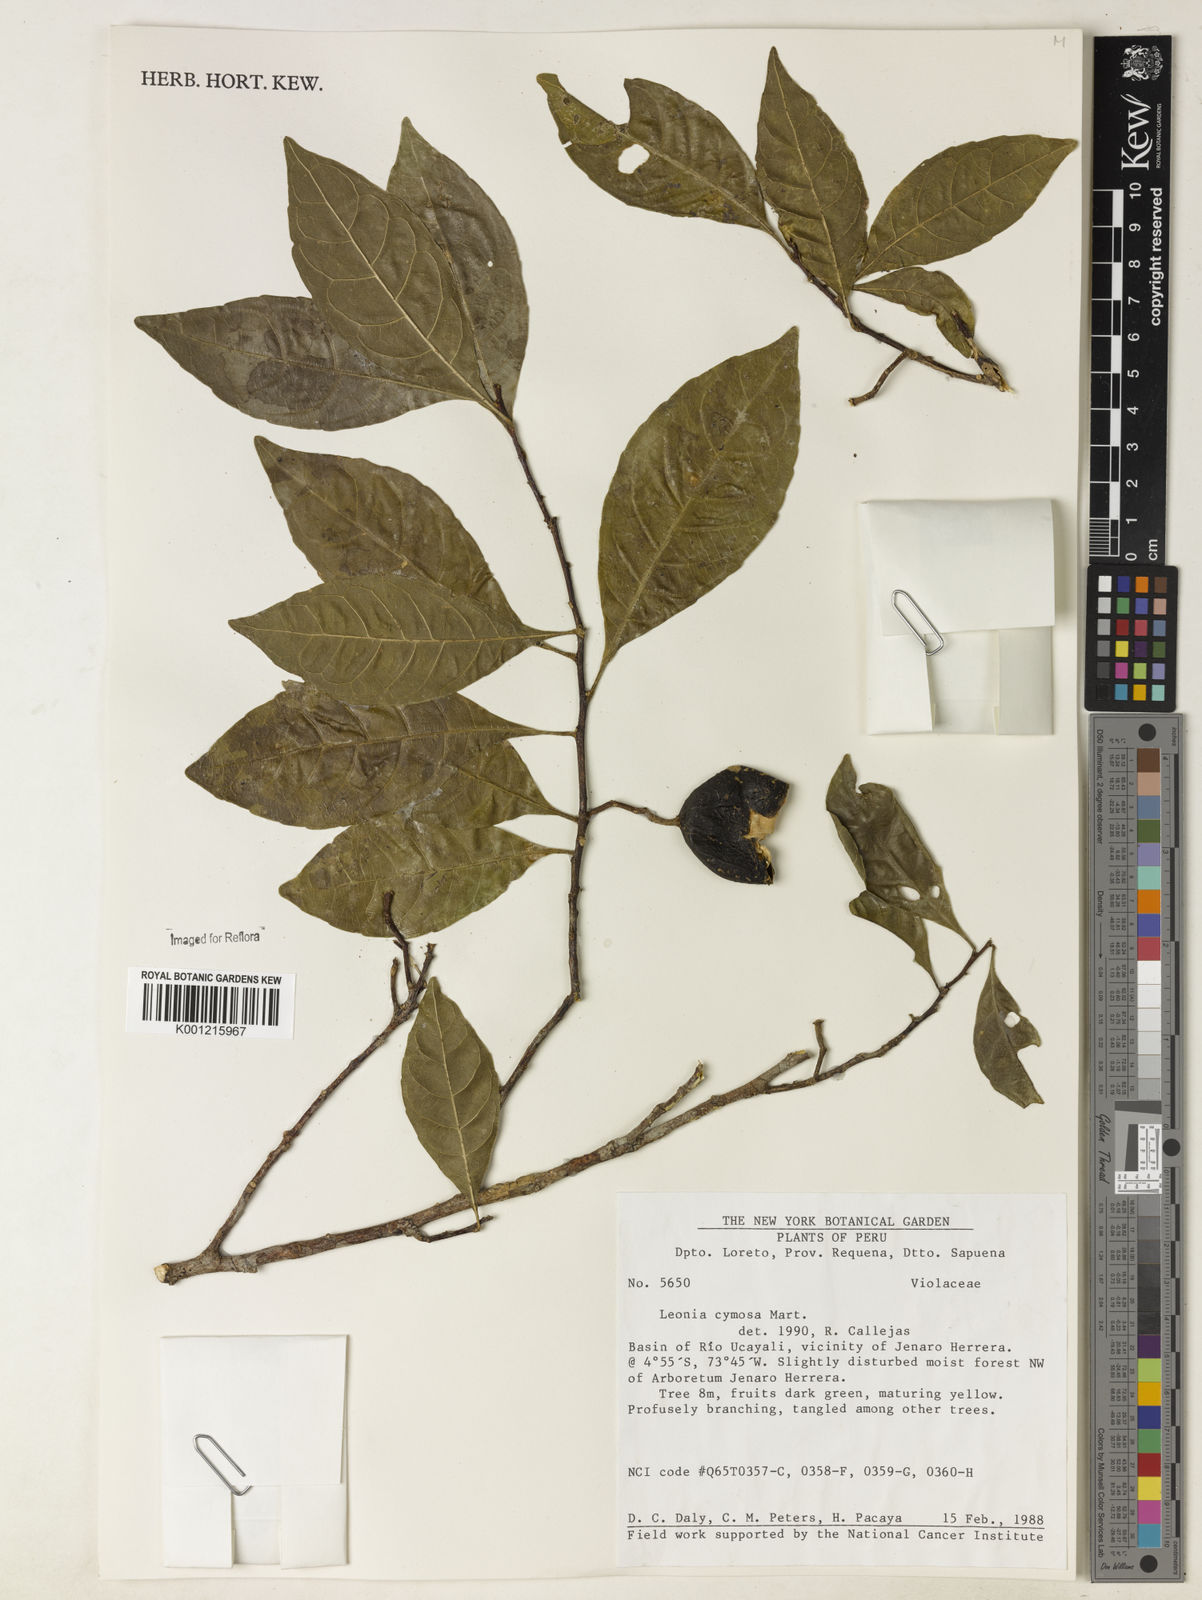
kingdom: Plantae
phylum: Tracheophyta
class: Magnoliopsida
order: Malpighiales
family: Violaceae
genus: Leonia
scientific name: Leonia cymosa
